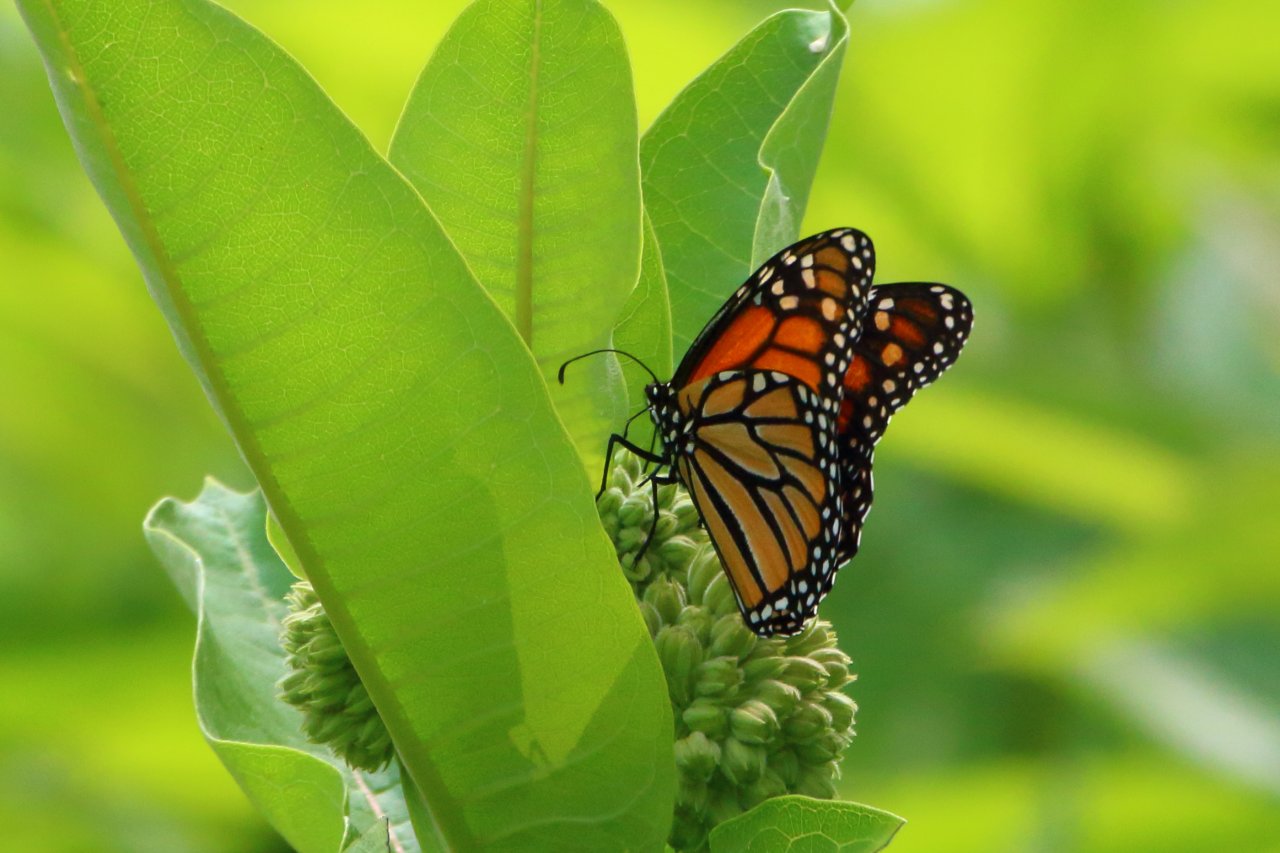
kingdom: Animalia
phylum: Arthropoda
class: Insecta
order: Lepidoptera
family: Nymphalidae
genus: Danaus
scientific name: Danaus plexippus
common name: Monarch
